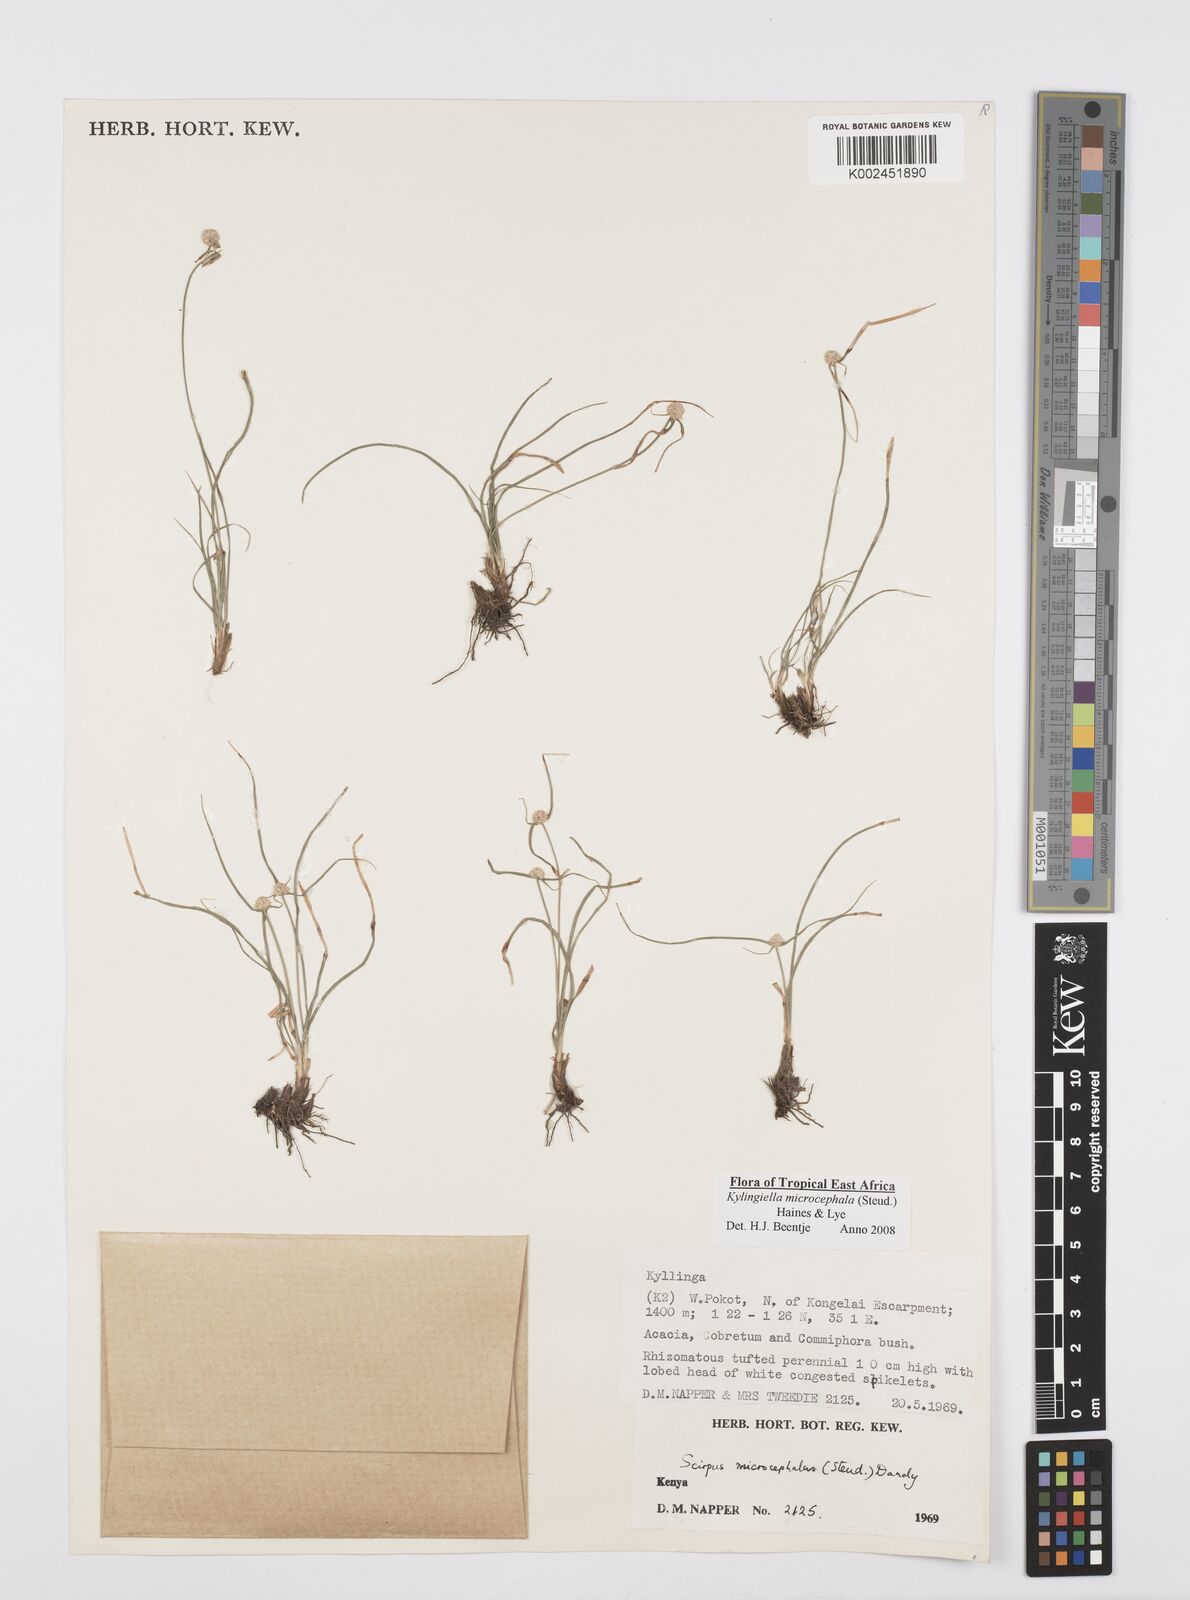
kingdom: Plantae
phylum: Tracheophyta
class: Liliopsida
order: Poales
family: Cyperaceae
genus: Cyperus
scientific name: Cyperus microcephalus
